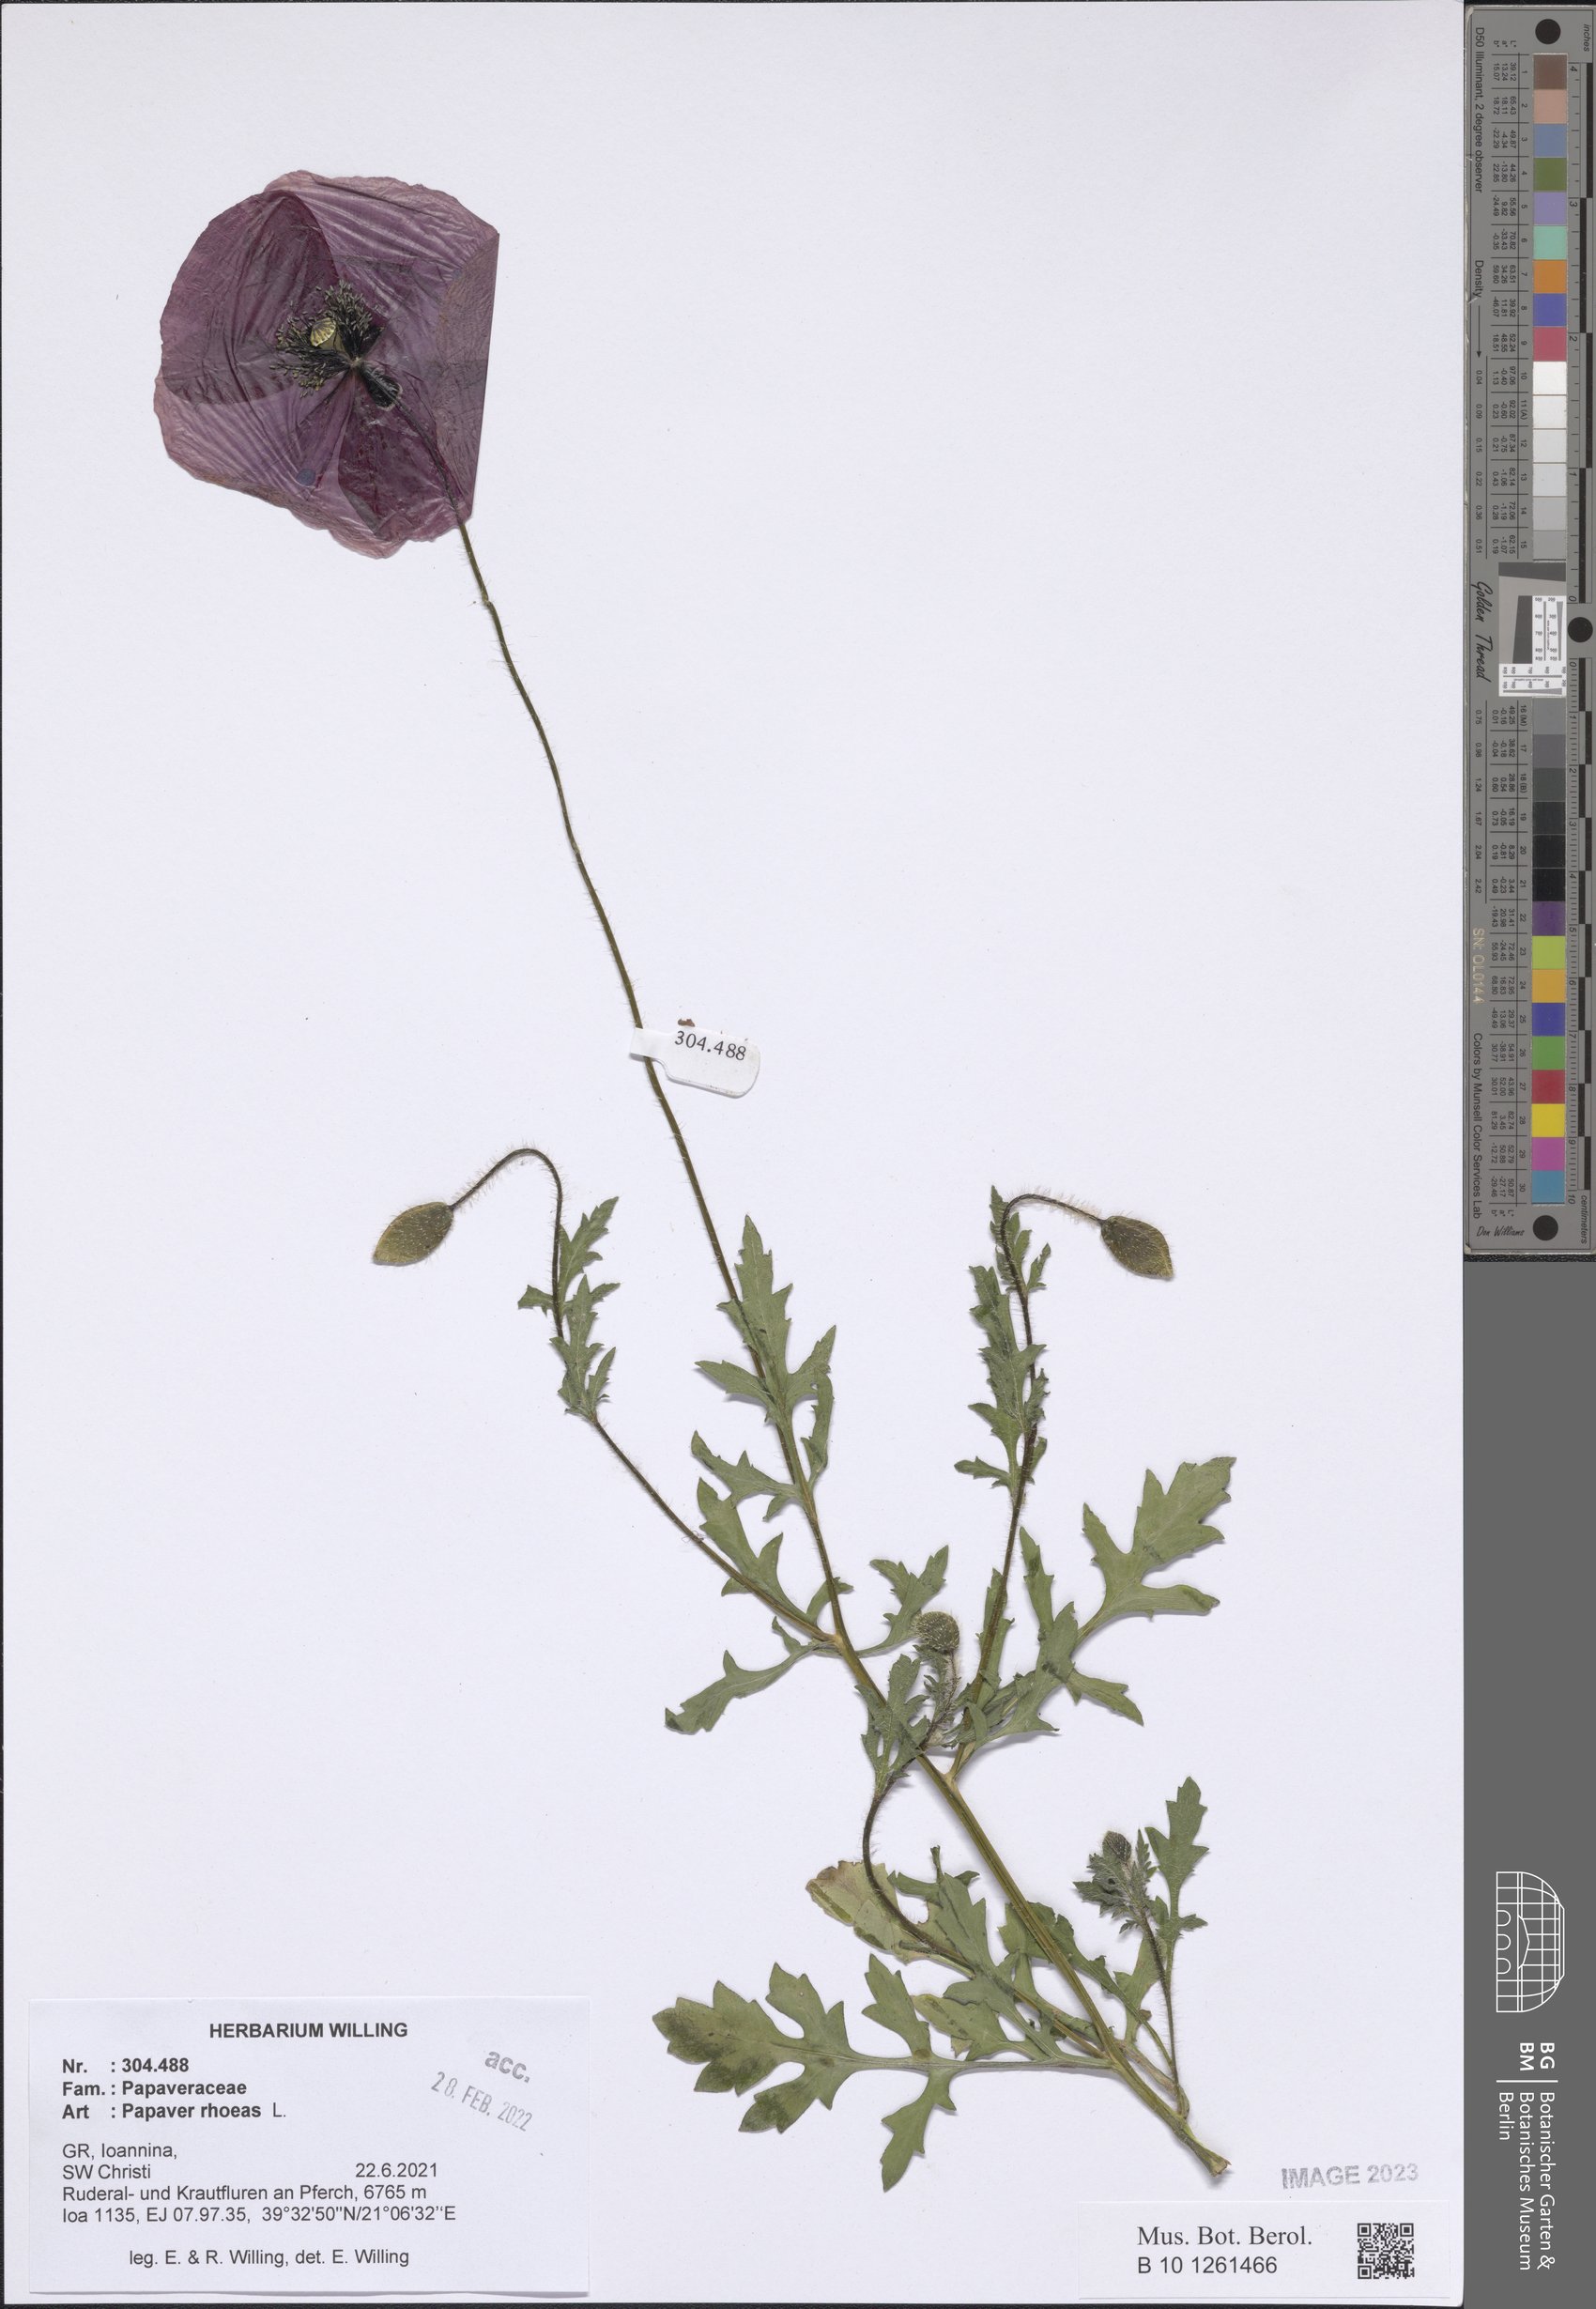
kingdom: Plantae
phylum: Tracheophyta
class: Magnoliopsida
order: Ranunculales
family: Papaveraceae
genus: Papaver
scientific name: Papaver rhoeas
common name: Corn poppy
